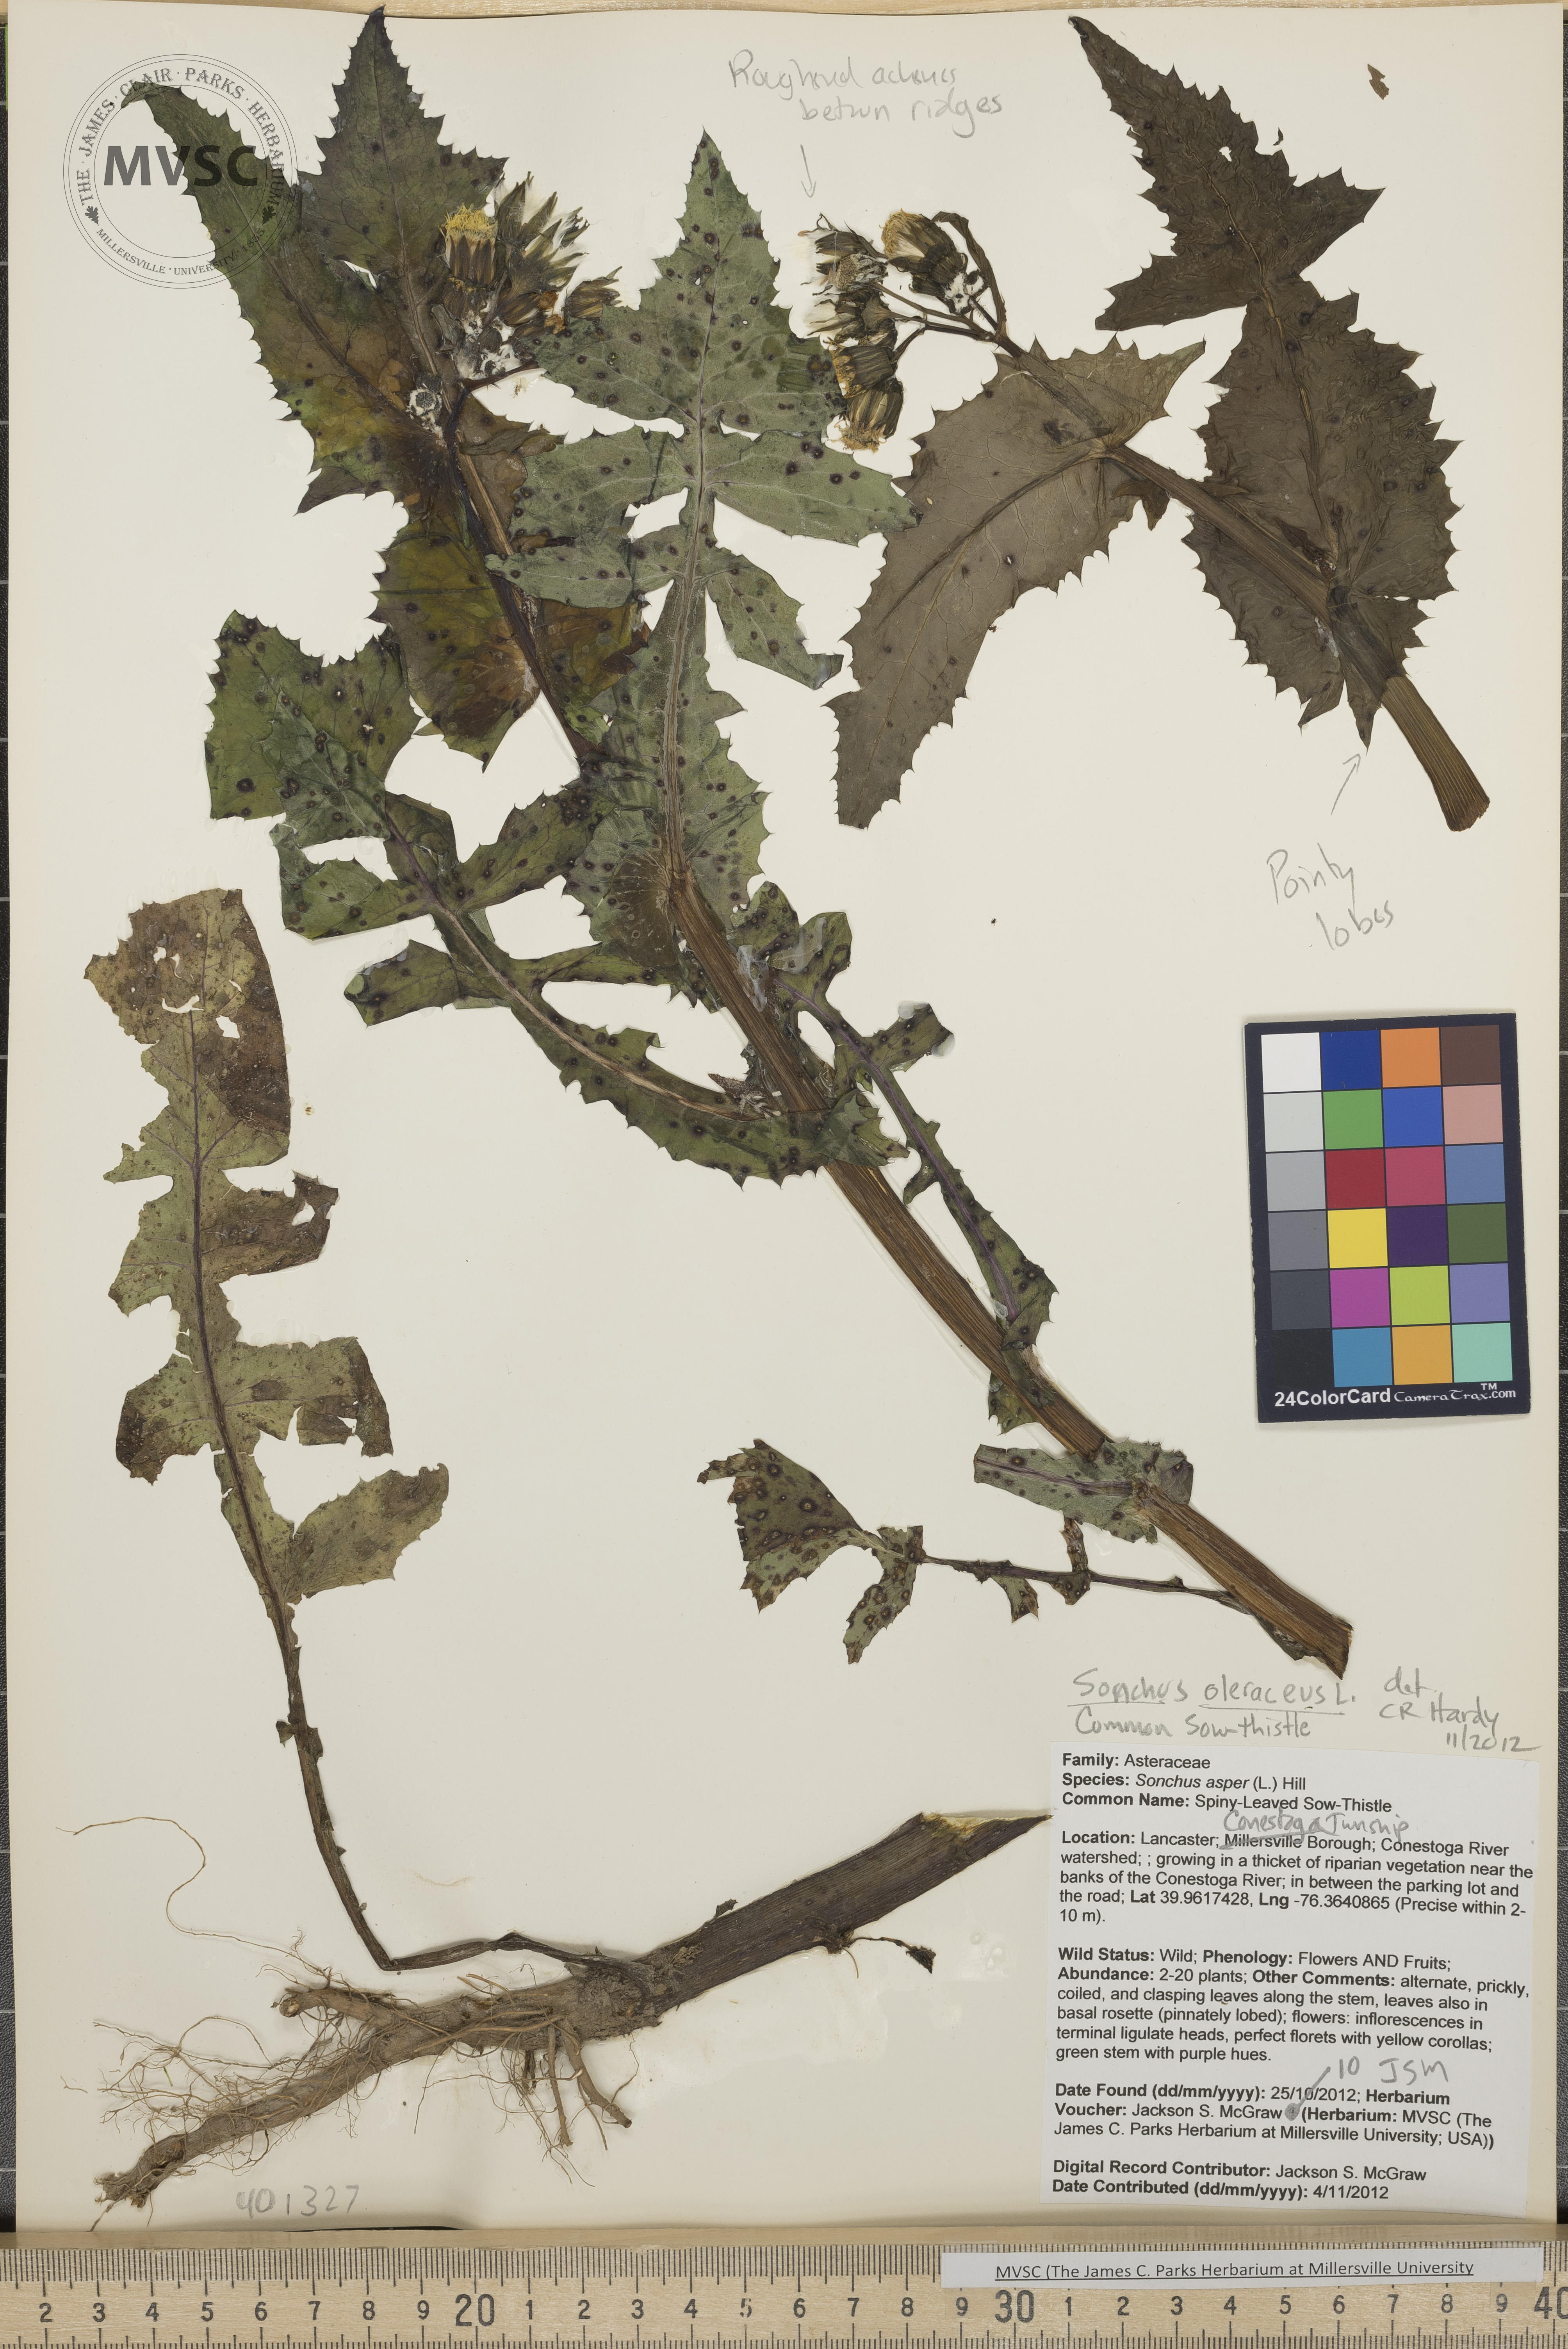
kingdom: Plantae
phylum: Tracheophyta
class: Magnoliopsida
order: Asterales
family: Asteraceae
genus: Sonchus
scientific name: Sonchus oleraceus
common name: Common Sow-Thistle
